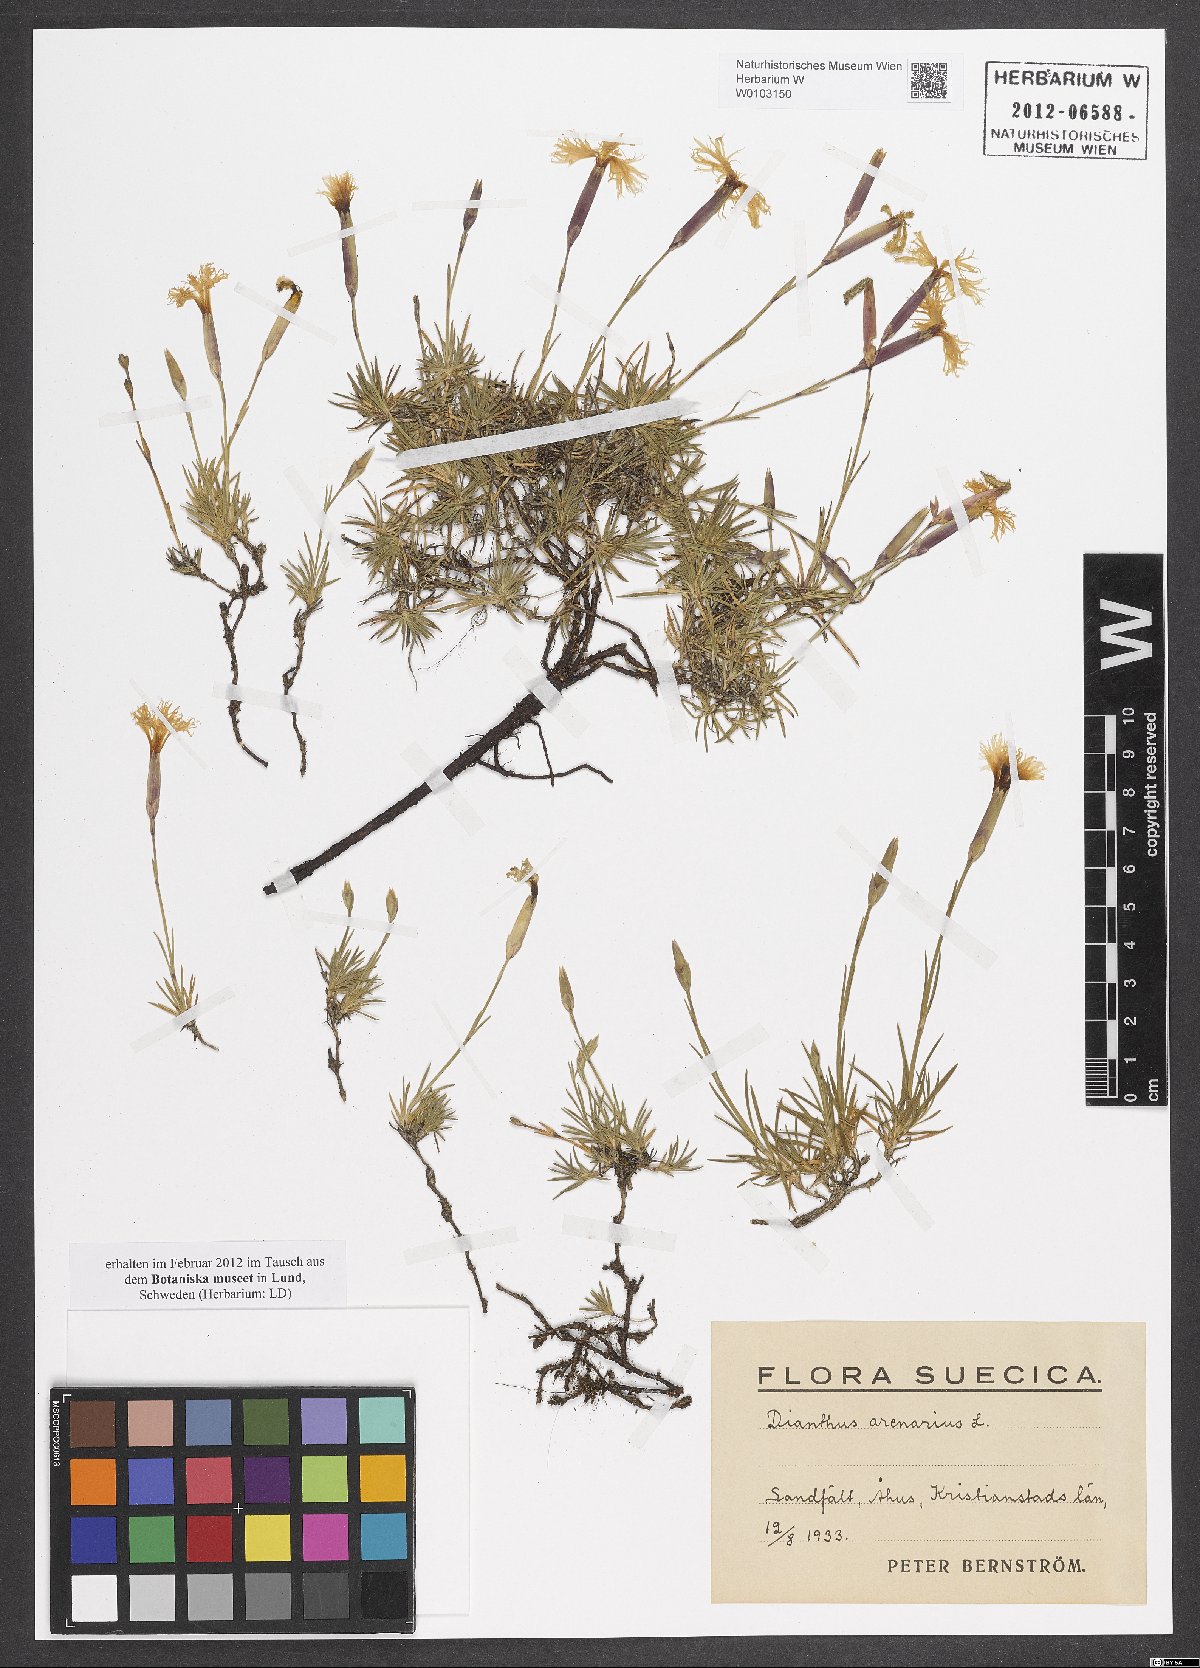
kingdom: Plantae
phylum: Tracheophyta
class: Magnoliopsida
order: Caryophyllales
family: Caryophyllaceae
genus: Dianthus
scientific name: Dianthus arenarius
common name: Stone pink
